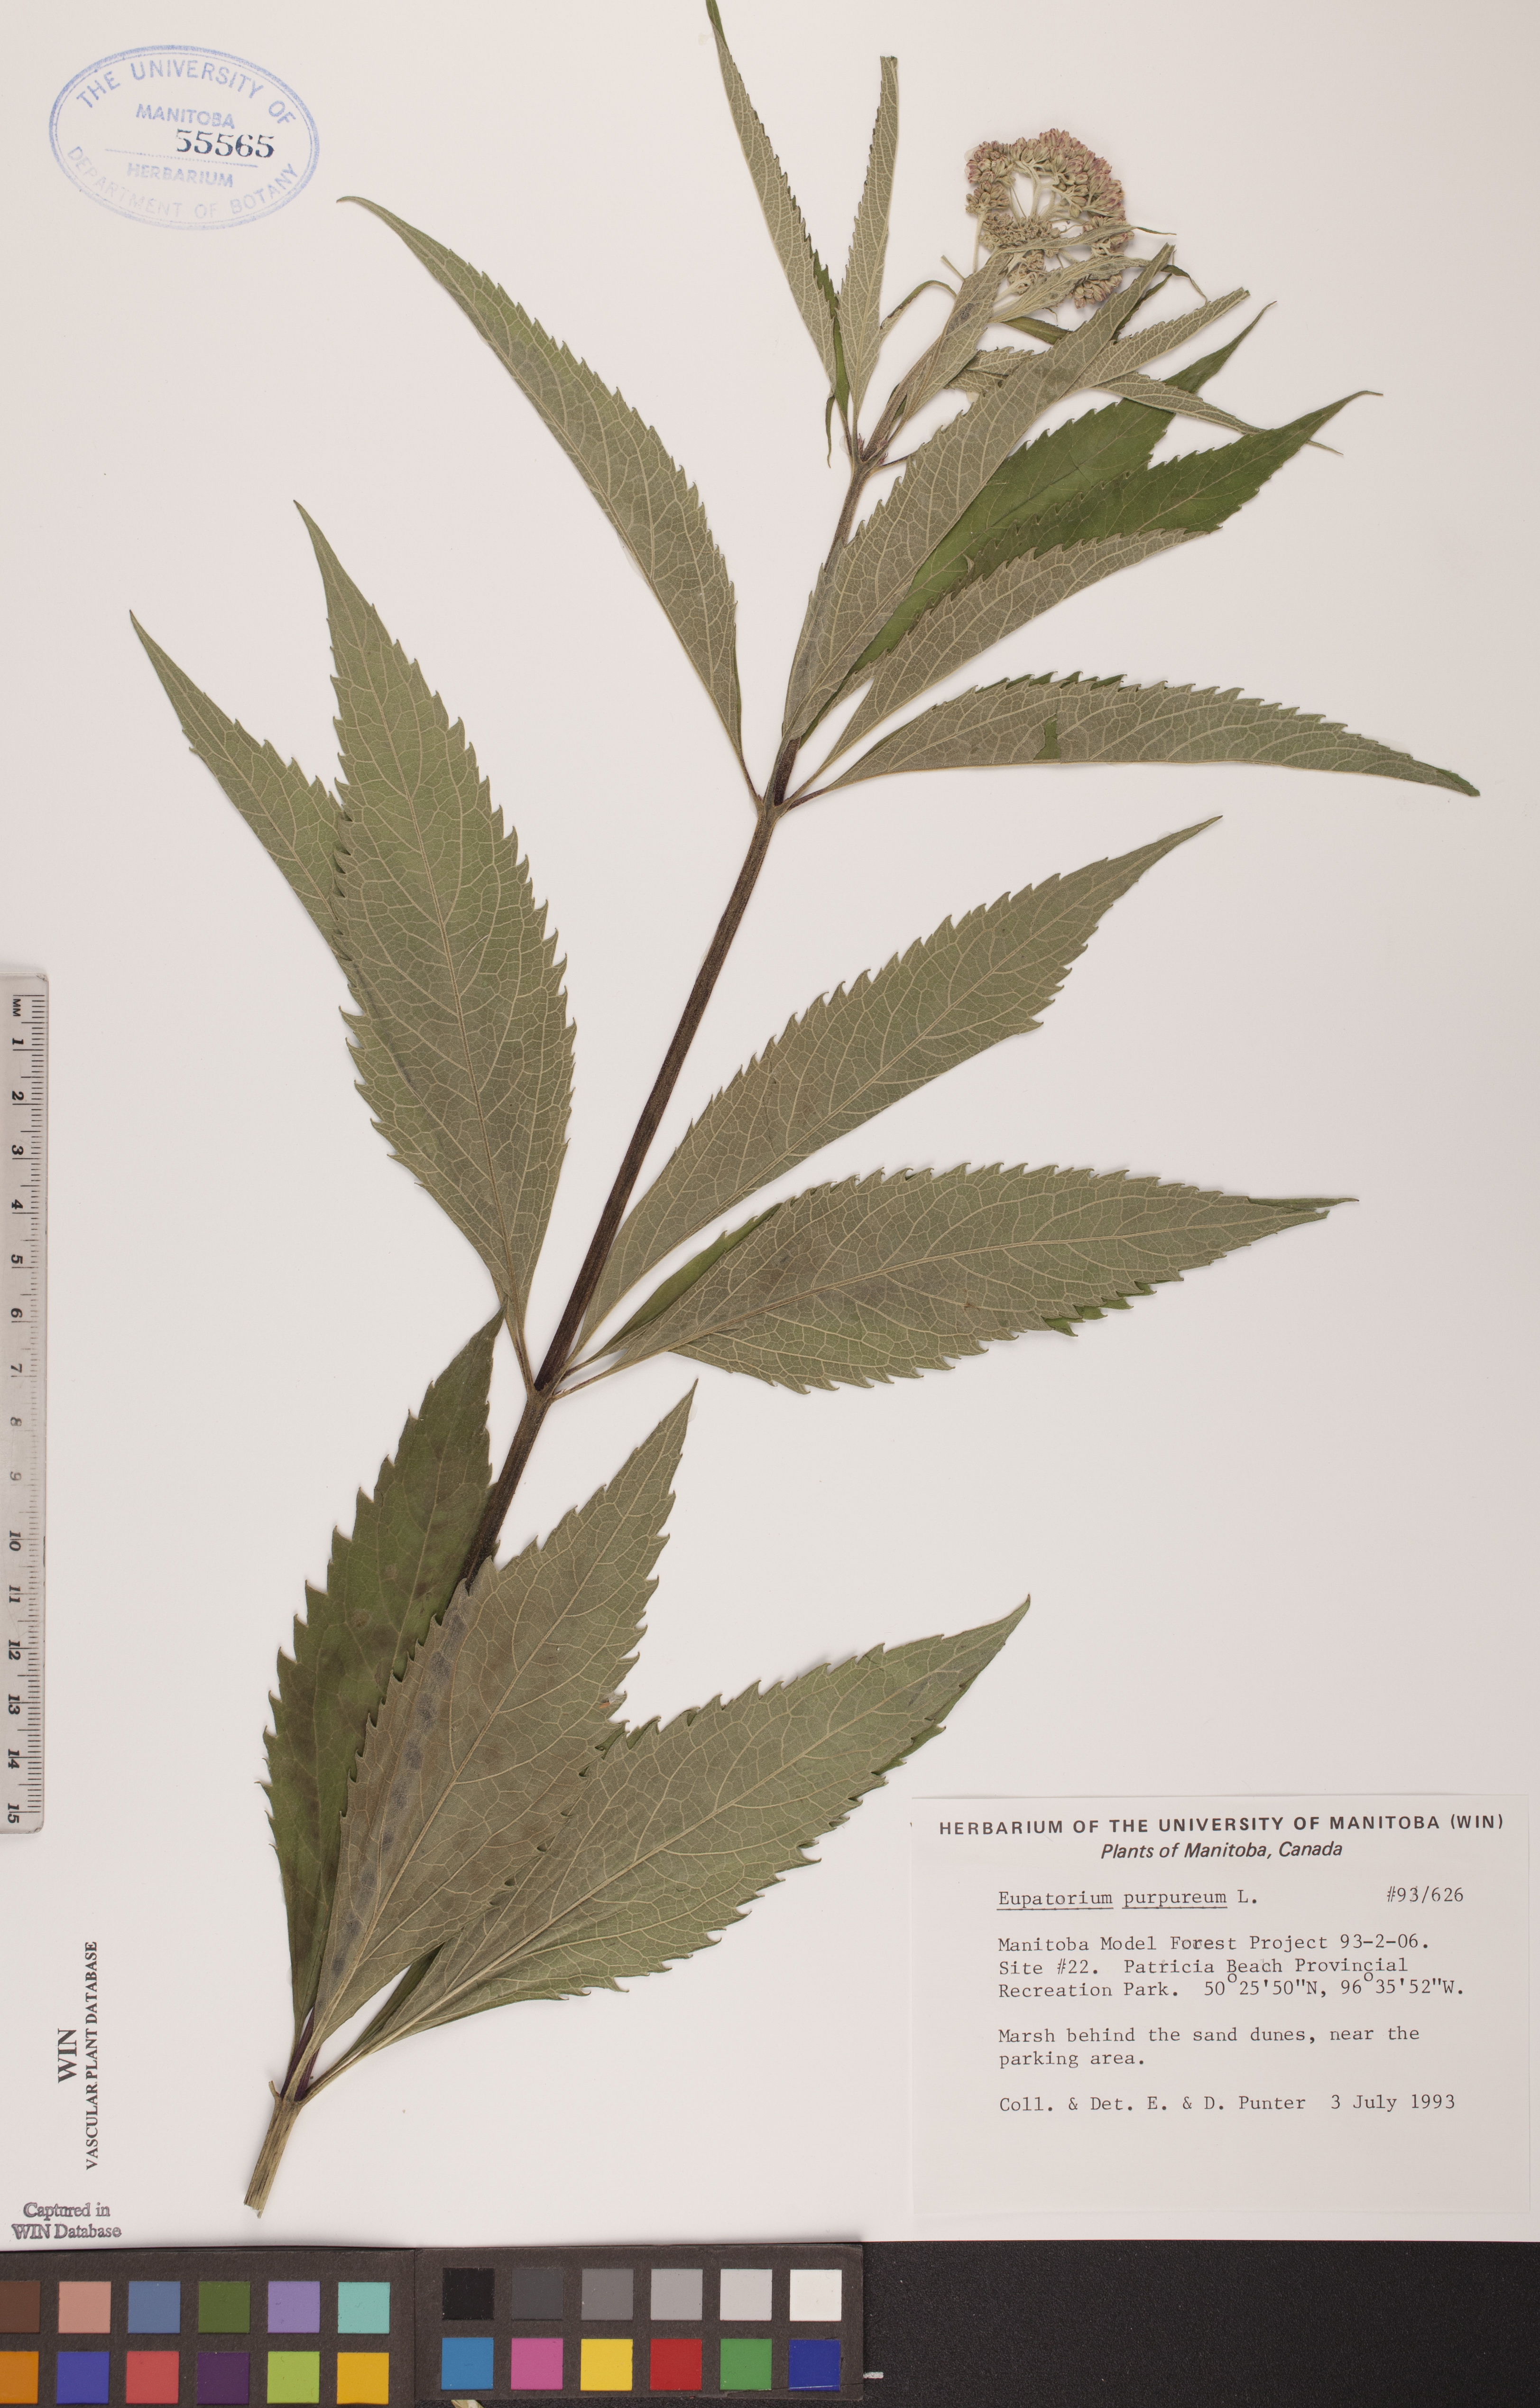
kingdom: Plantae
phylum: Tracheophyta
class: Magnoliopsida
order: Asterales
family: Asteraceae
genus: Eupatorium
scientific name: Eupatorium quaternum
